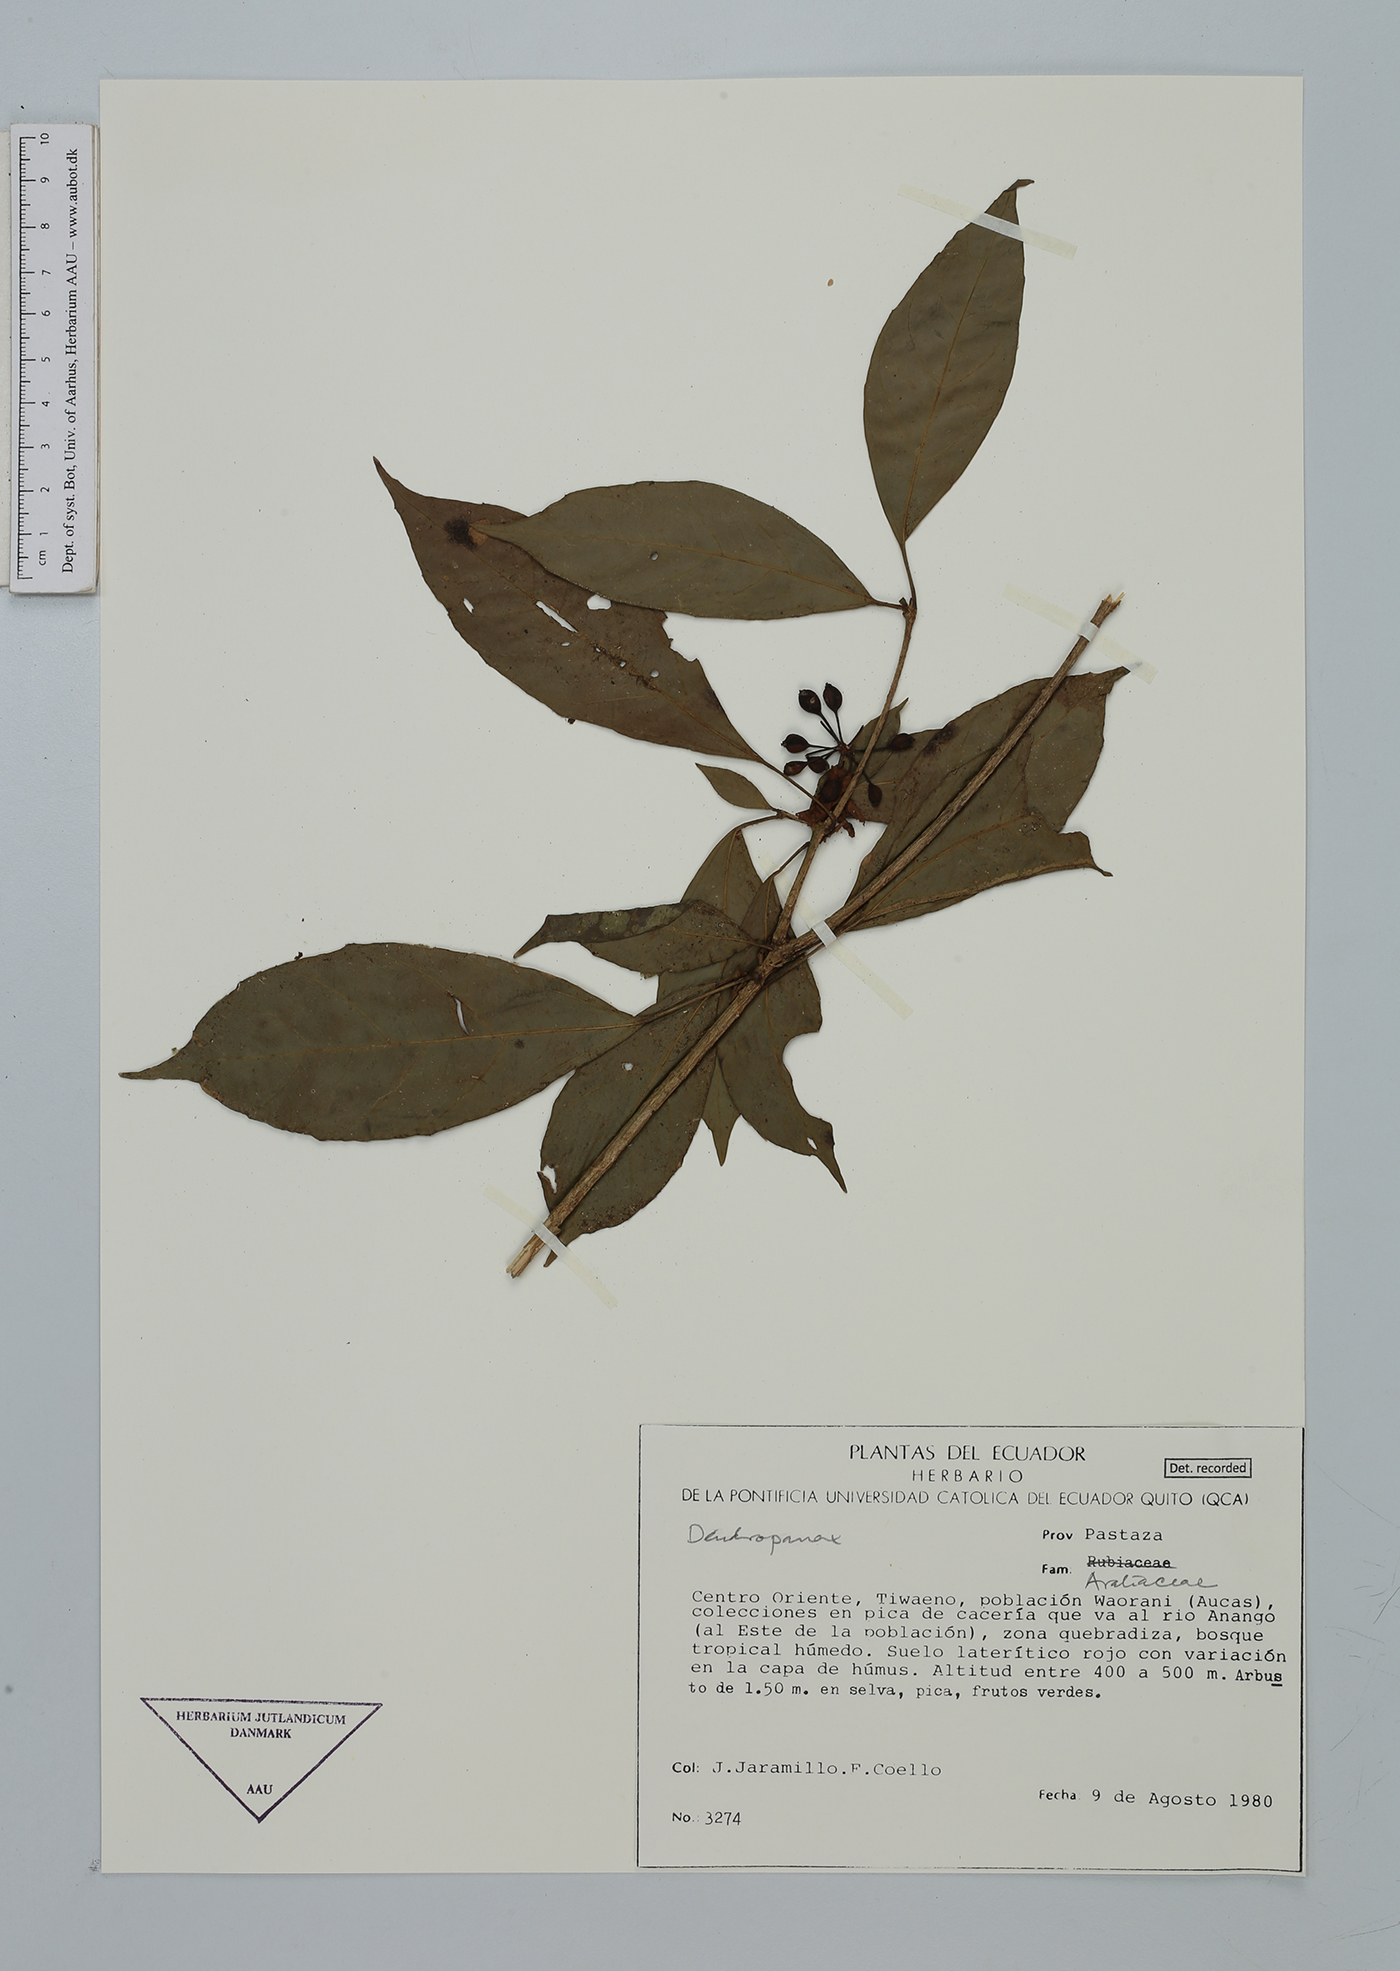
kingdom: Plantae
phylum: Tracheophyta
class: Magnoliopsida
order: Apiales
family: Araliaceae
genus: Dendropanax
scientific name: Dendropanax
